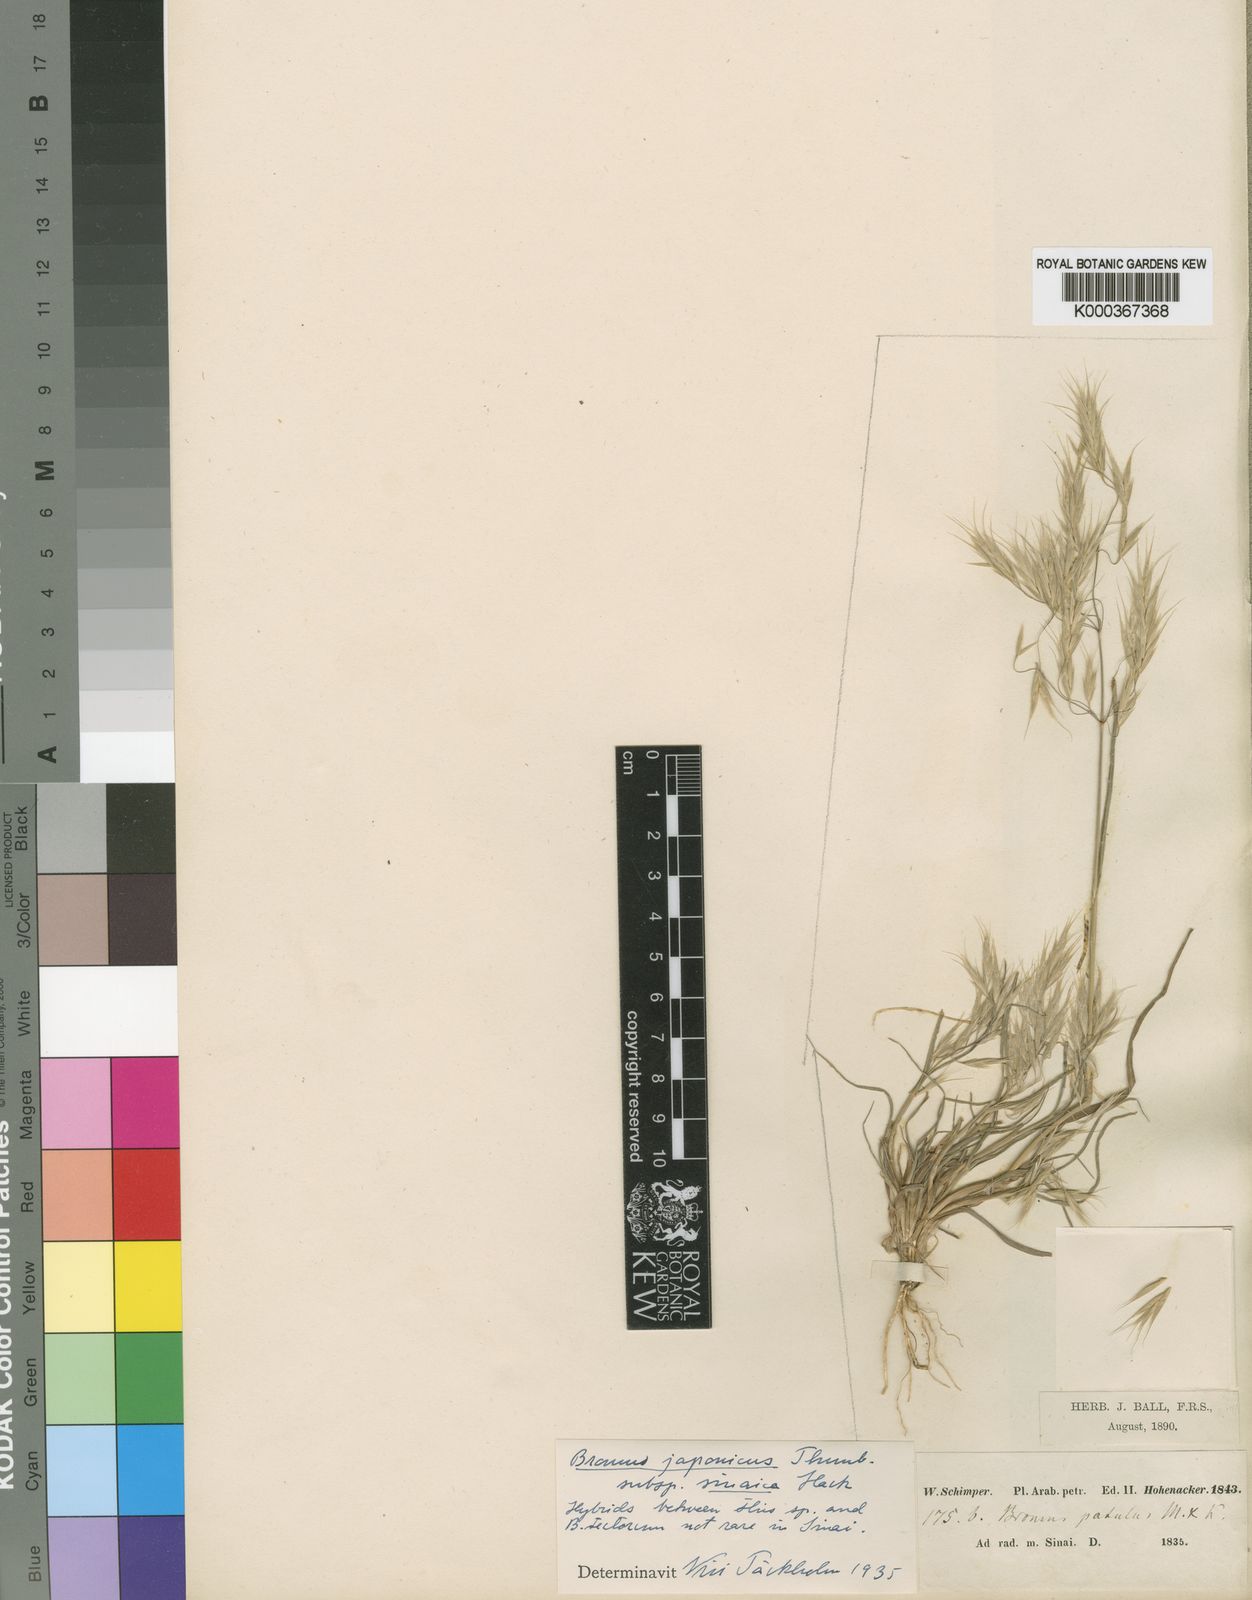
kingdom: Plantae
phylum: Tracheophyta
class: Liliopsida
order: Poales
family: Poaceae
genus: Bromus
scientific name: Bromus pectinatus
